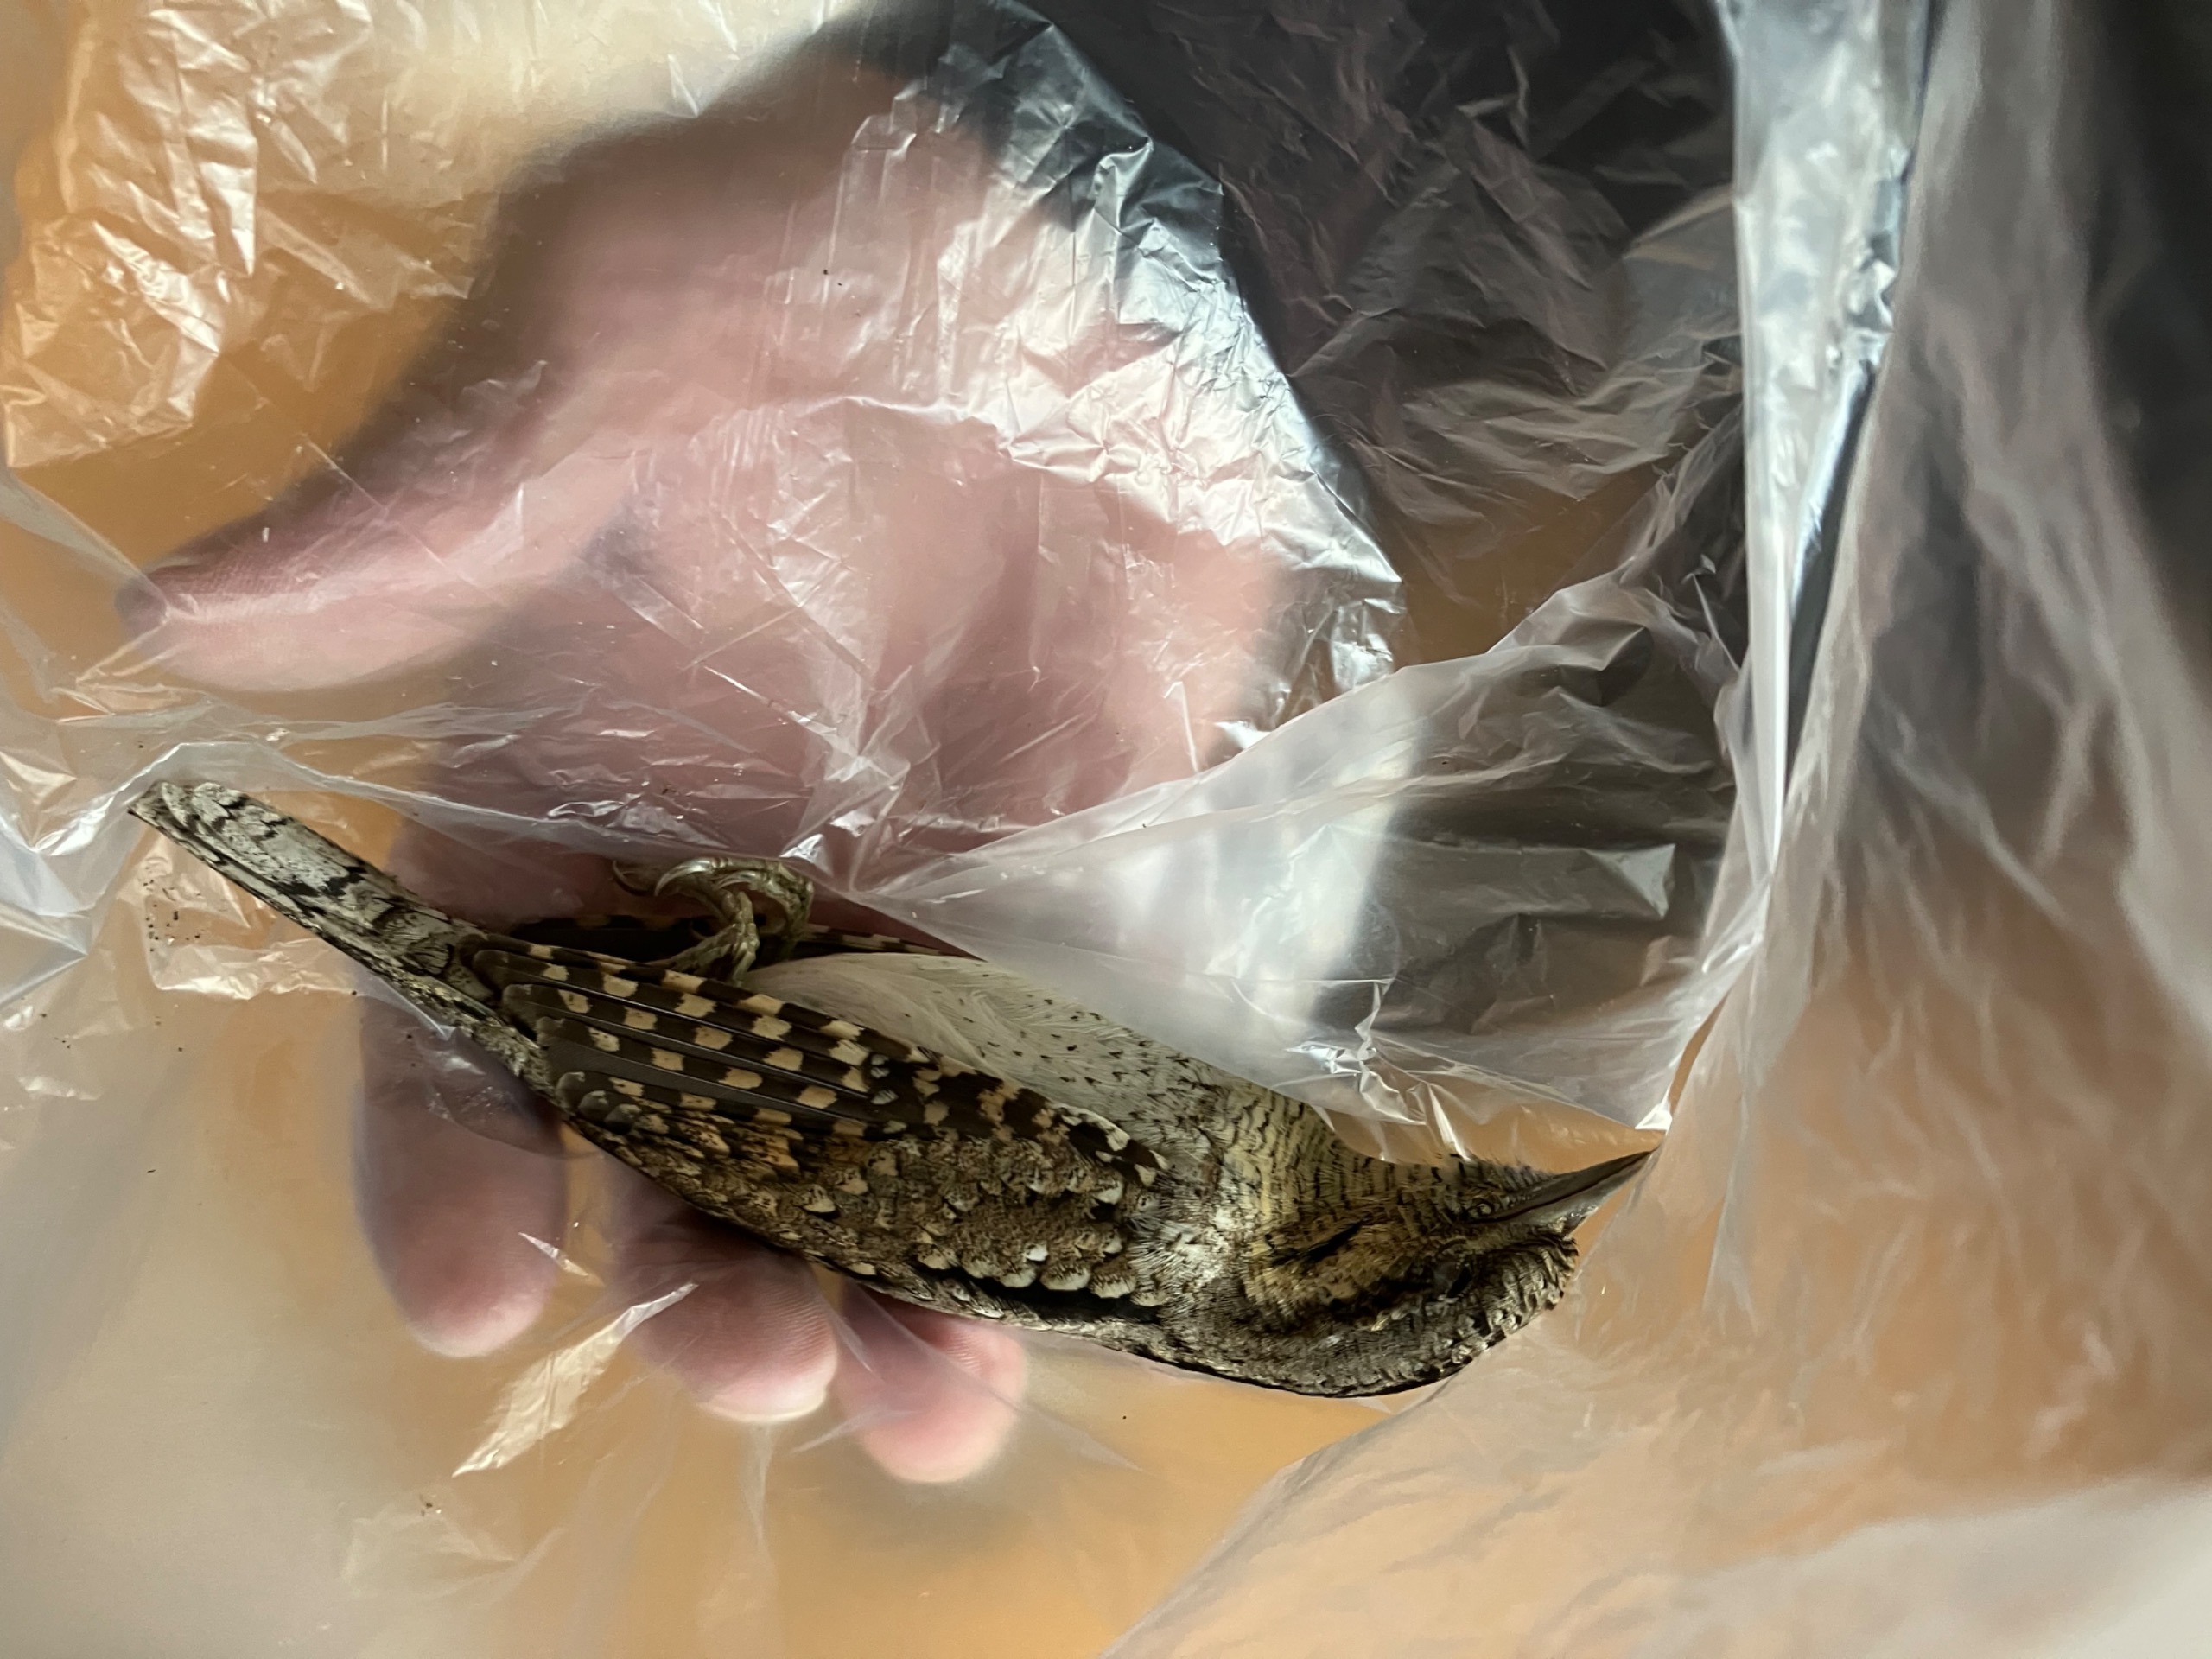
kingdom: Animalia
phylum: Chordata
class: Aves
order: Piciformes
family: Picidae
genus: Jynx
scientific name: Jynx torquilla
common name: Vendehals
